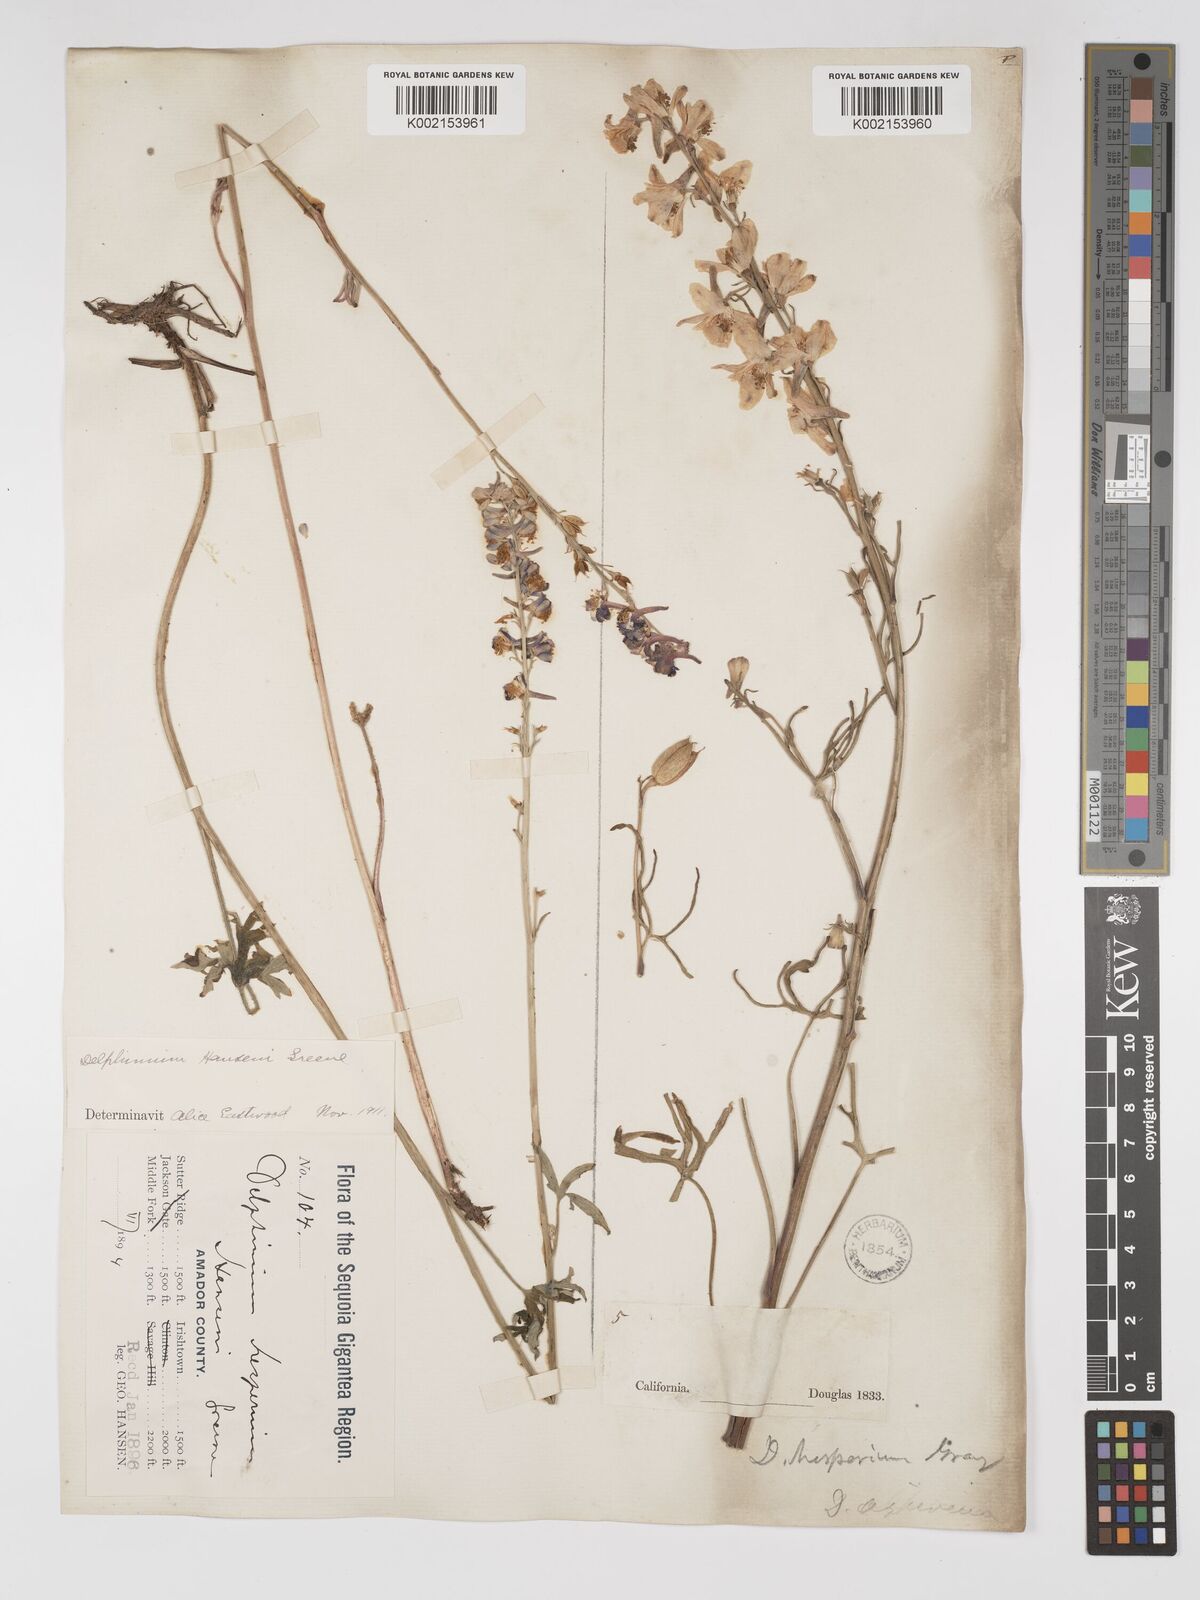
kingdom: Plantae
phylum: Tracheophyta
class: Magnoliopsida
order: Ranunculales
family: Ranunculaceae
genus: Delphinium
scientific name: Delphinium hansenii
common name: Hansen's larkspur
